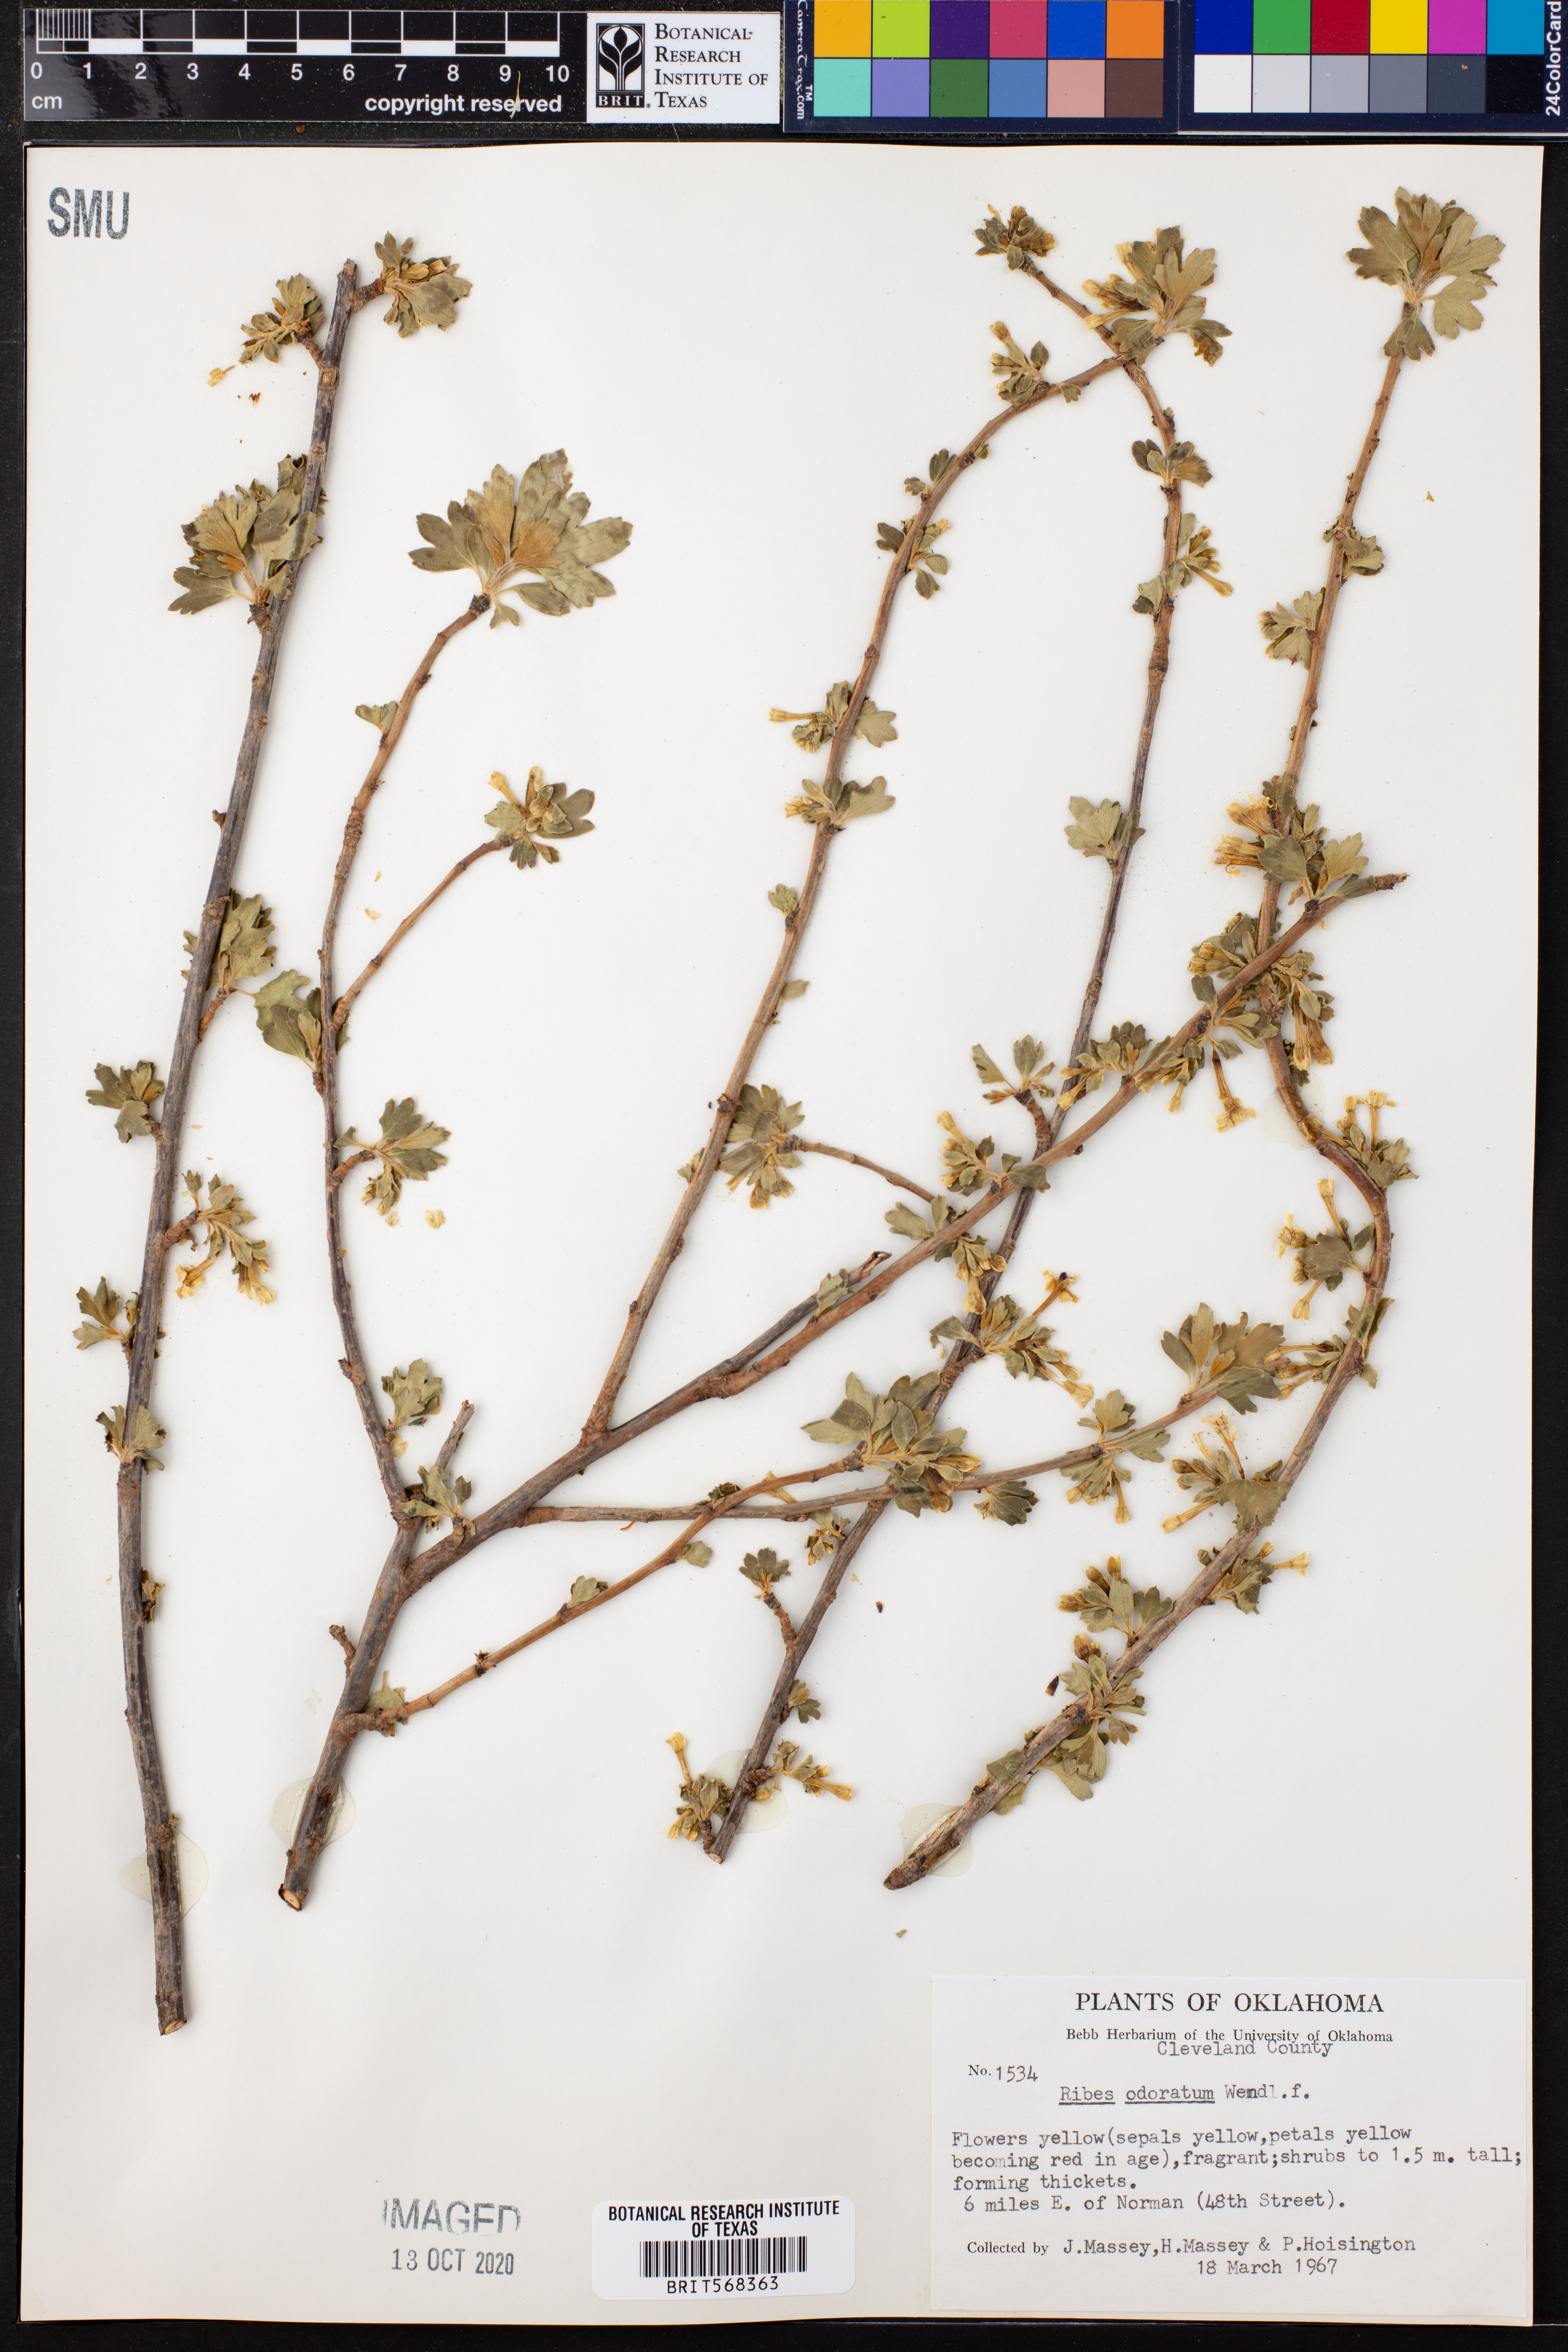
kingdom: Plantae
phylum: Tracheophyta
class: Magnoliopsida
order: Saxifragales
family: Grossulariaceae
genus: Ribes
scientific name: Ribes aureum
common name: Golden currant
